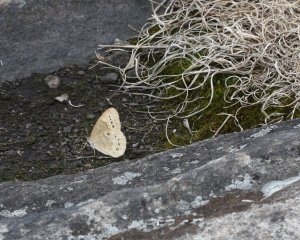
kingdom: Animalia
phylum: Arthropoda
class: Insecta
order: Lepidoptera
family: Nymphalidae
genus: Lethe
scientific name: Lethe eurydice
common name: Eyed Brown
